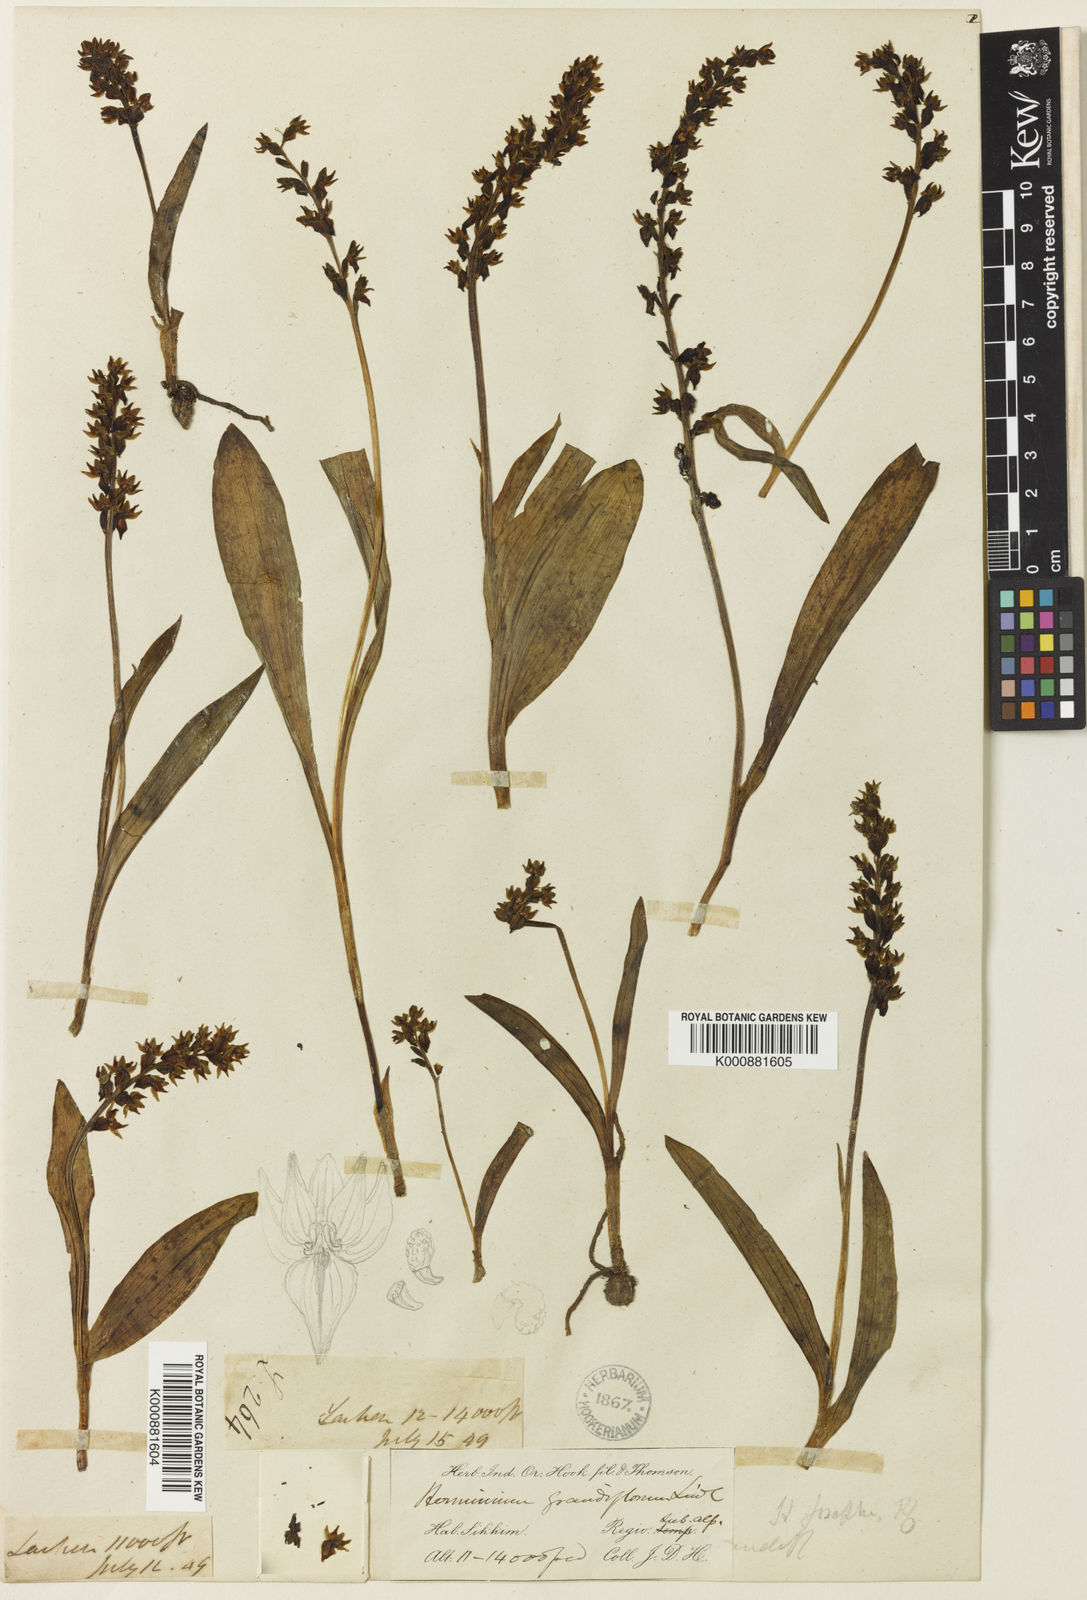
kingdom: Plantae
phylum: Tracheophyta
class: Liliopsida
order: Asparagales
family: Orchidaceae
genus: Herminium
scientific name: Herminium josephi
